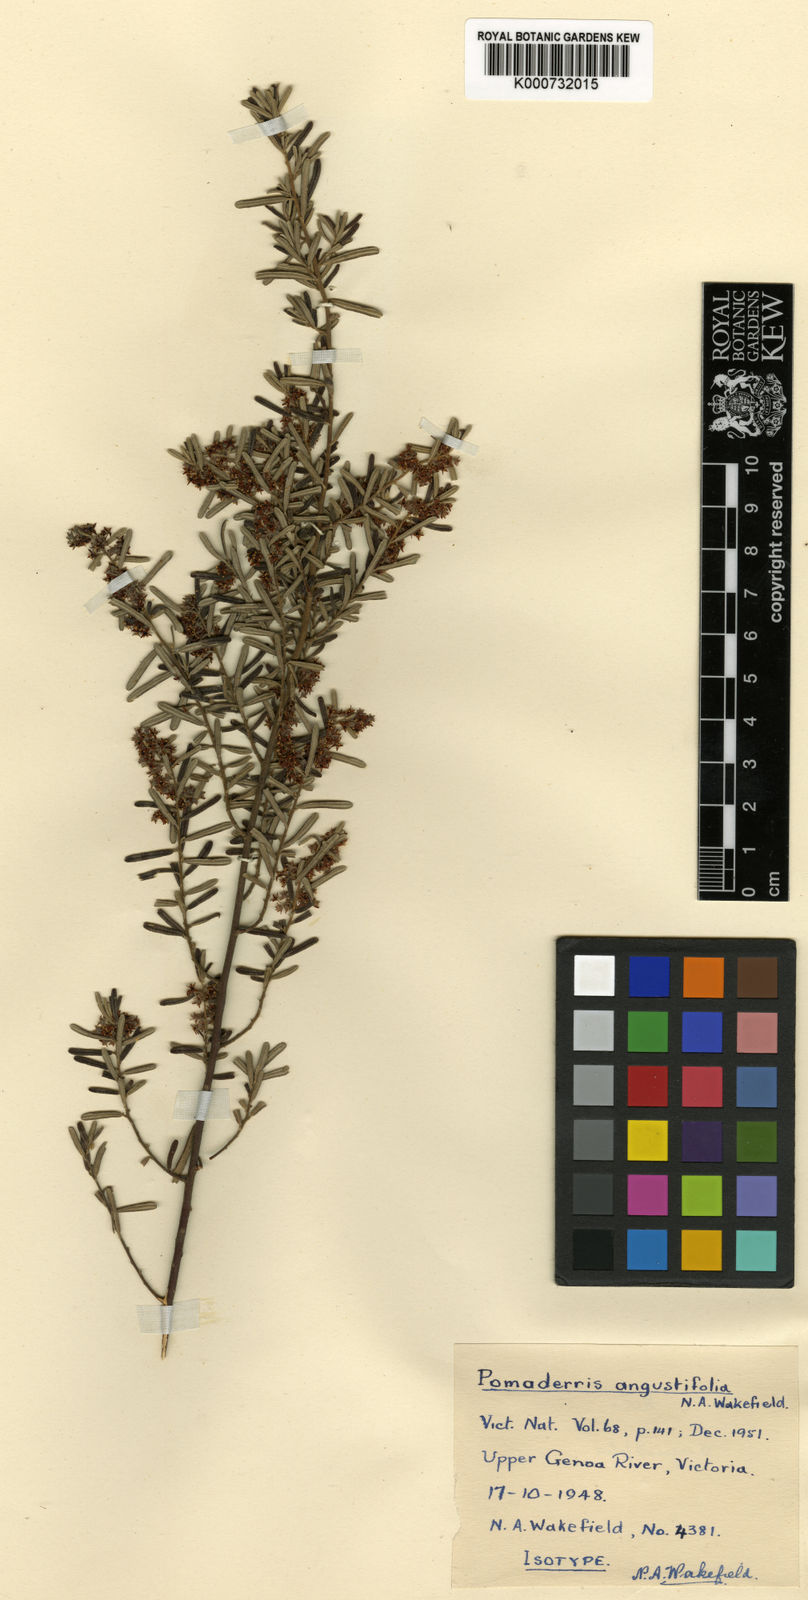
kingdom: Plantae
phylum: Tracheophyta
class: Magnoliopsida
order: Rosales
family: Rhamnaceae
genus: Pomaderris
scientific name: Pomaderris intermedia
